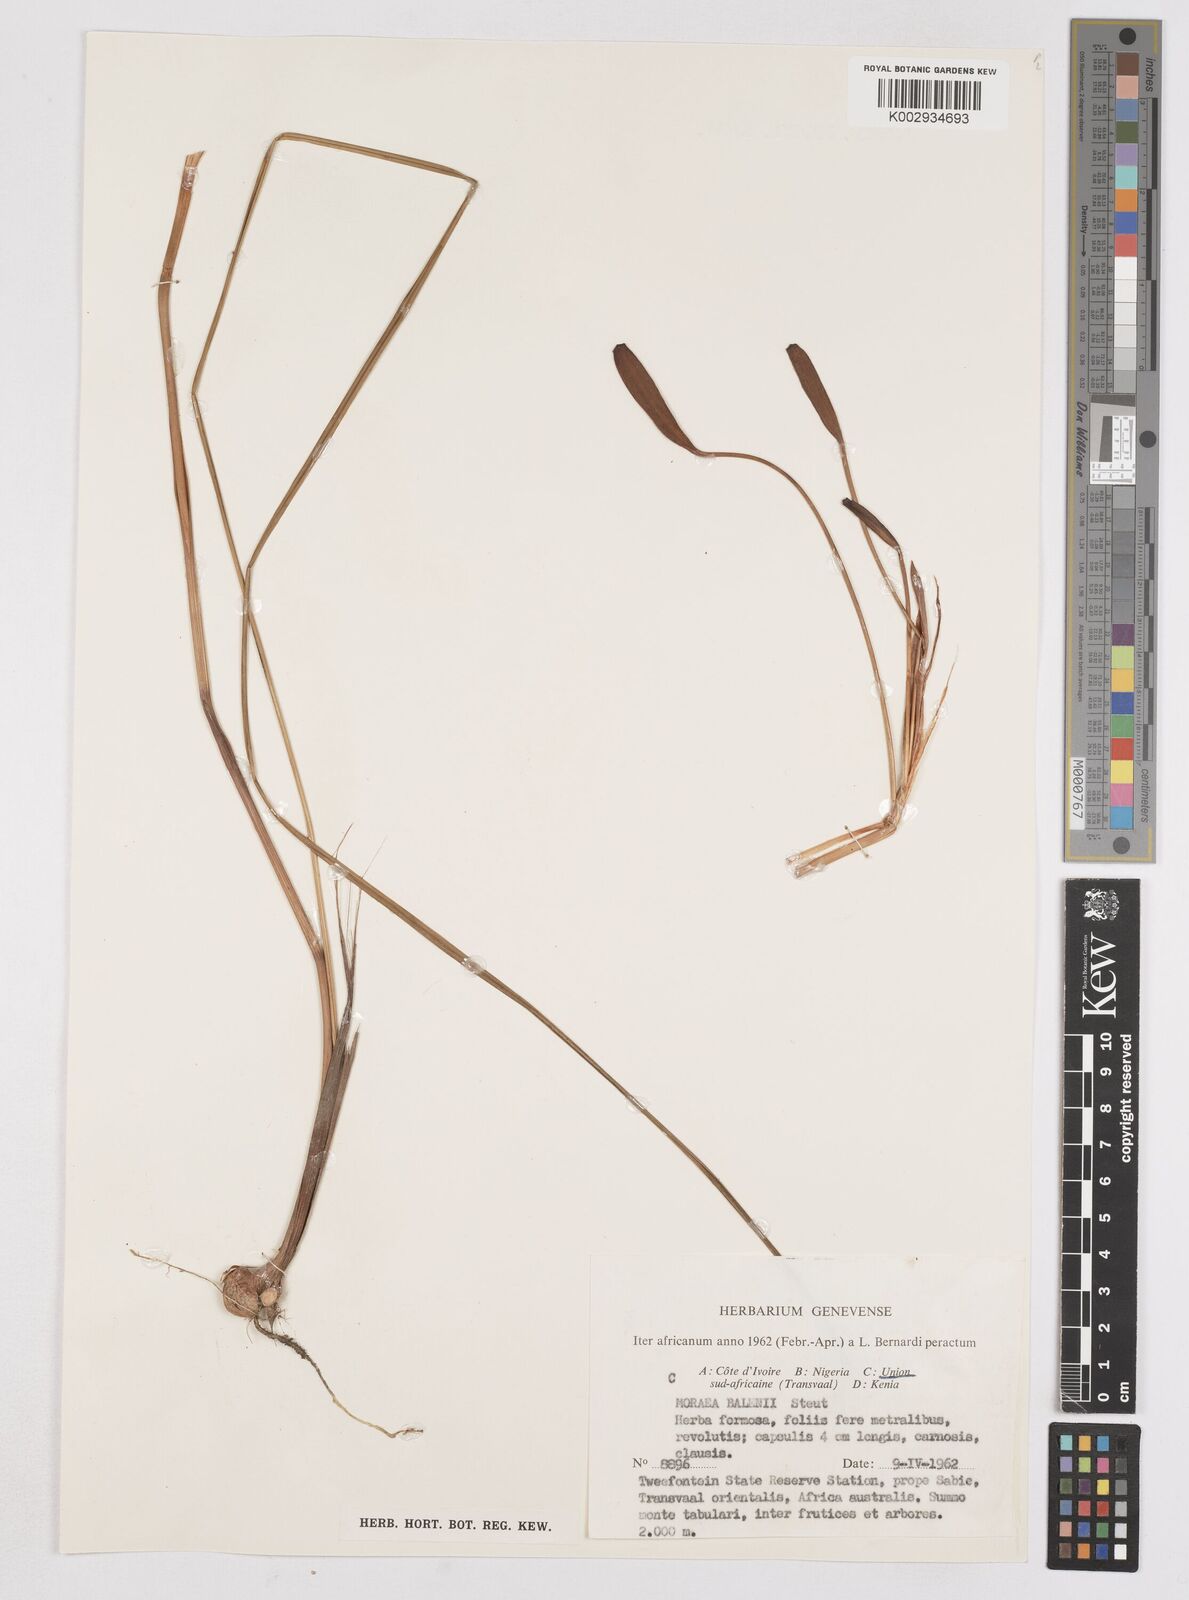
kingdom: Plantae
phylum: Tracheophyta
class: Liliopsida
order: Asparagales
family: Iridaceae
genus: Moraea
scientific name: Moraea muddii
